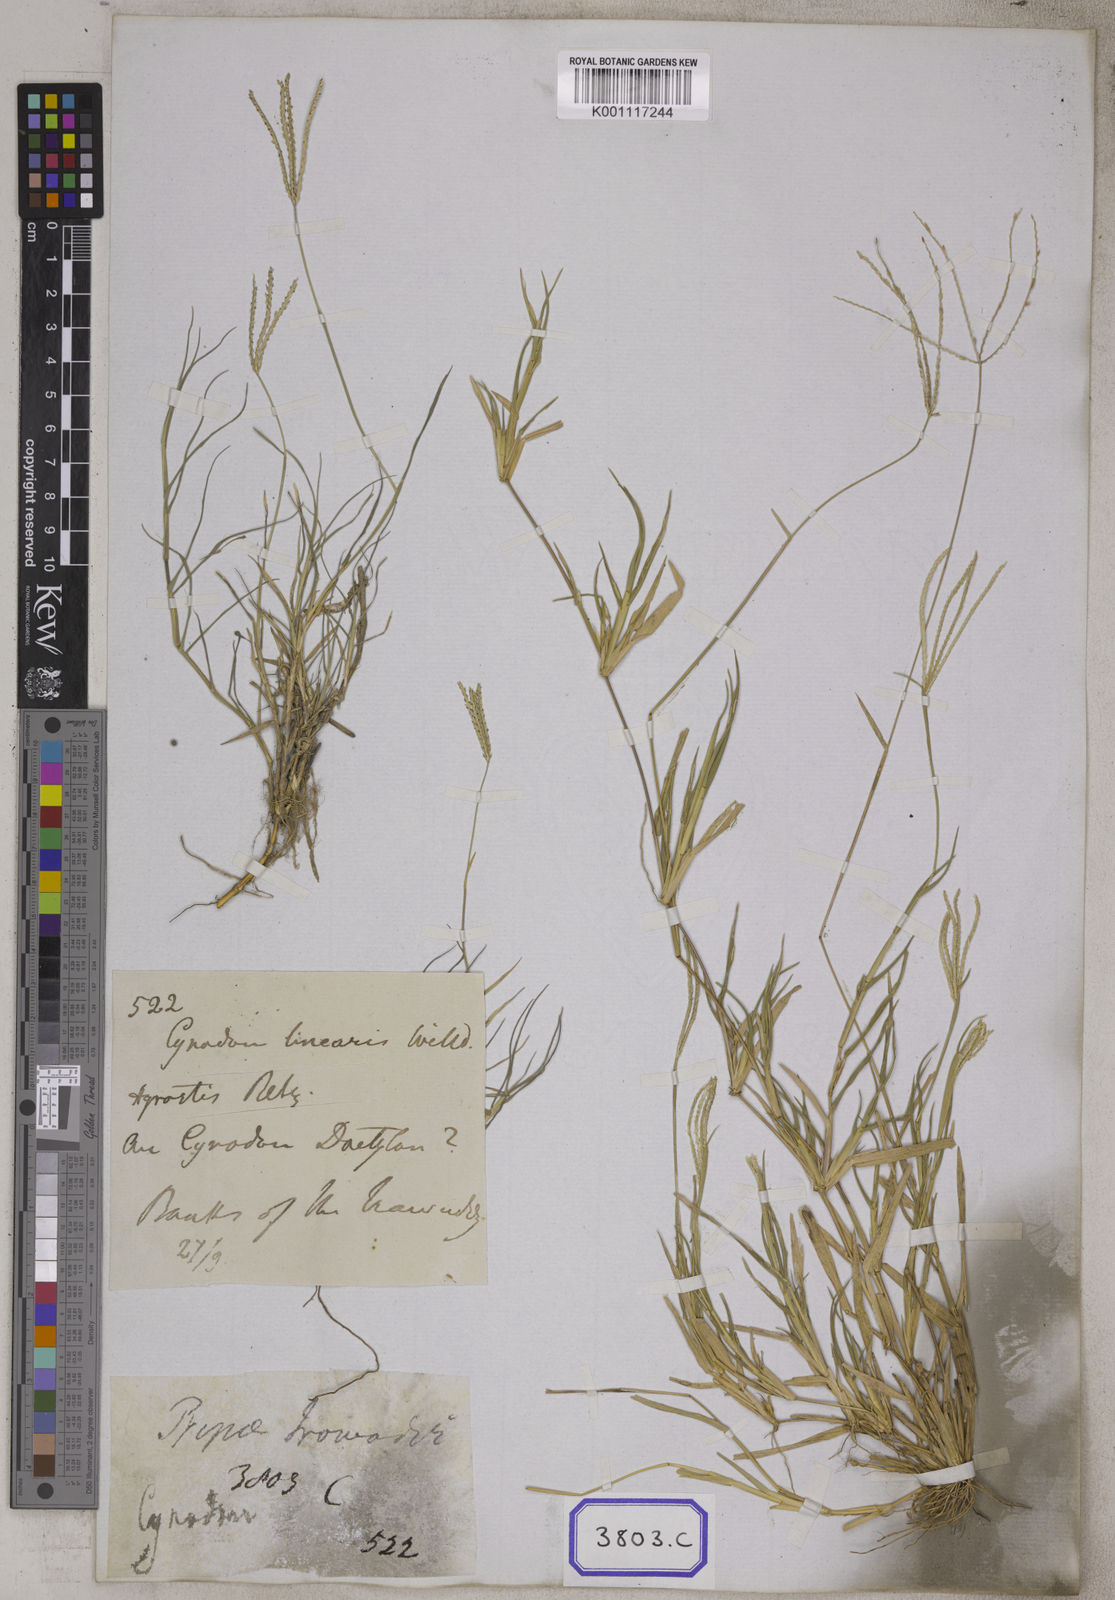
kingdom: Plantae
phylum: Tracheophyta
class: Liliopsida
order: Poales
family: Poaceae
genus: Cynodon
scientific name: Cynodon dactylon
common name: Bermuda grass
